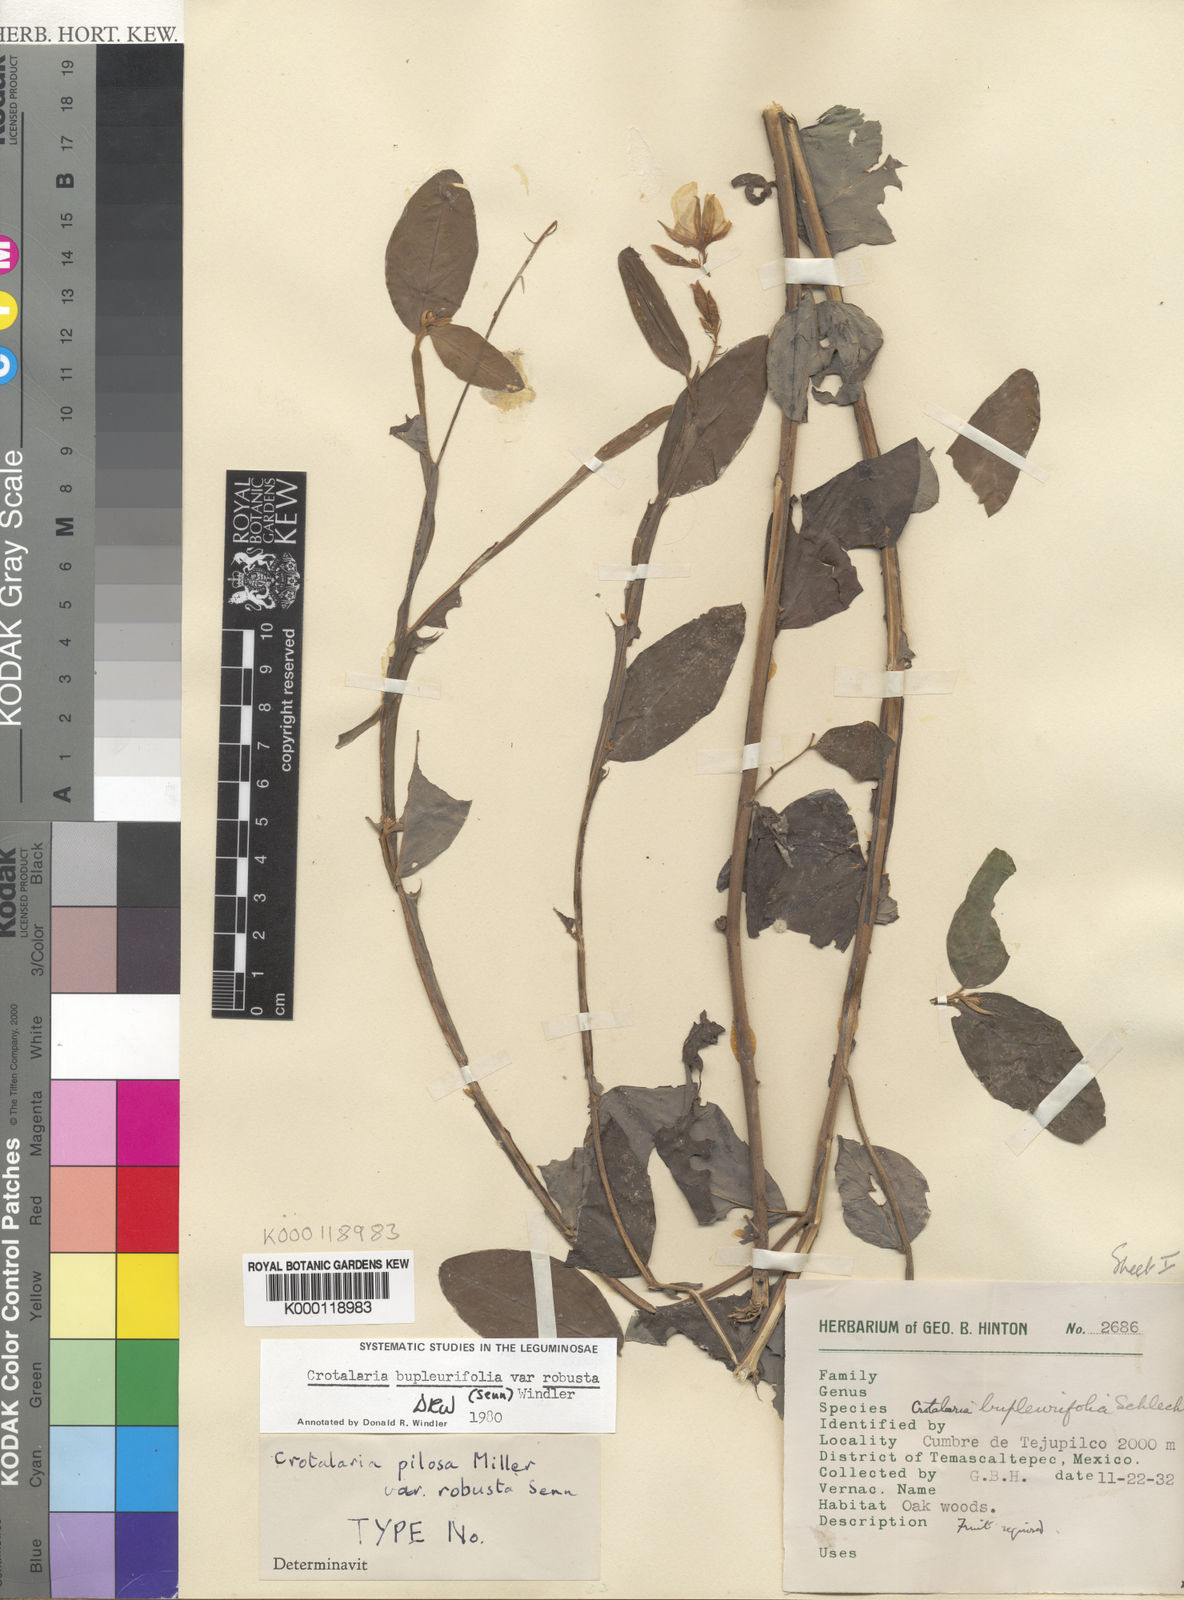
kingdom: Plantae
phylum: Tracheophyta
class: Magnoliopsida
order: Fabales
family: Fabaceae
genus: Crotalaria
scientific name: Crotalaria bupleurifolia
